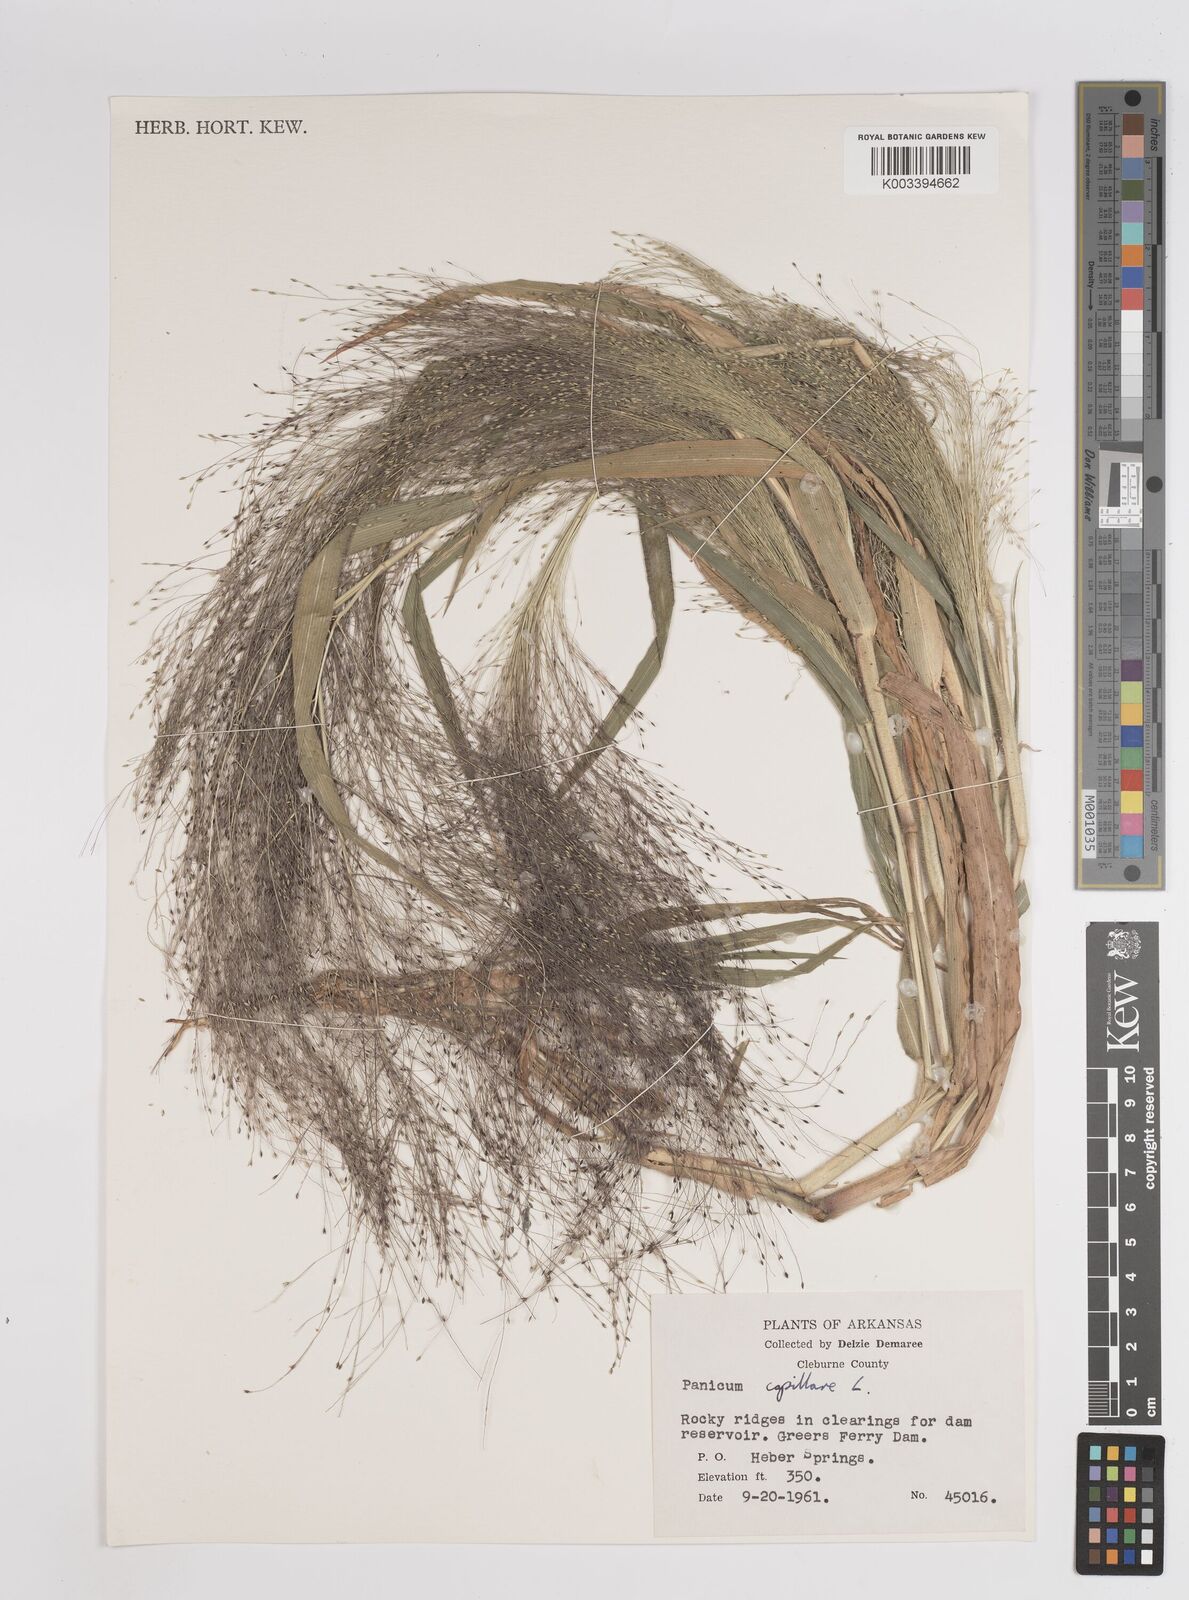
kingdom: Plantae
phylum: Tracheophyta
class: Liliopsida
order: Poales
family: Poaceae
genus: Panicum
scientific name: Panicum capillare
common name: Witch-grass
